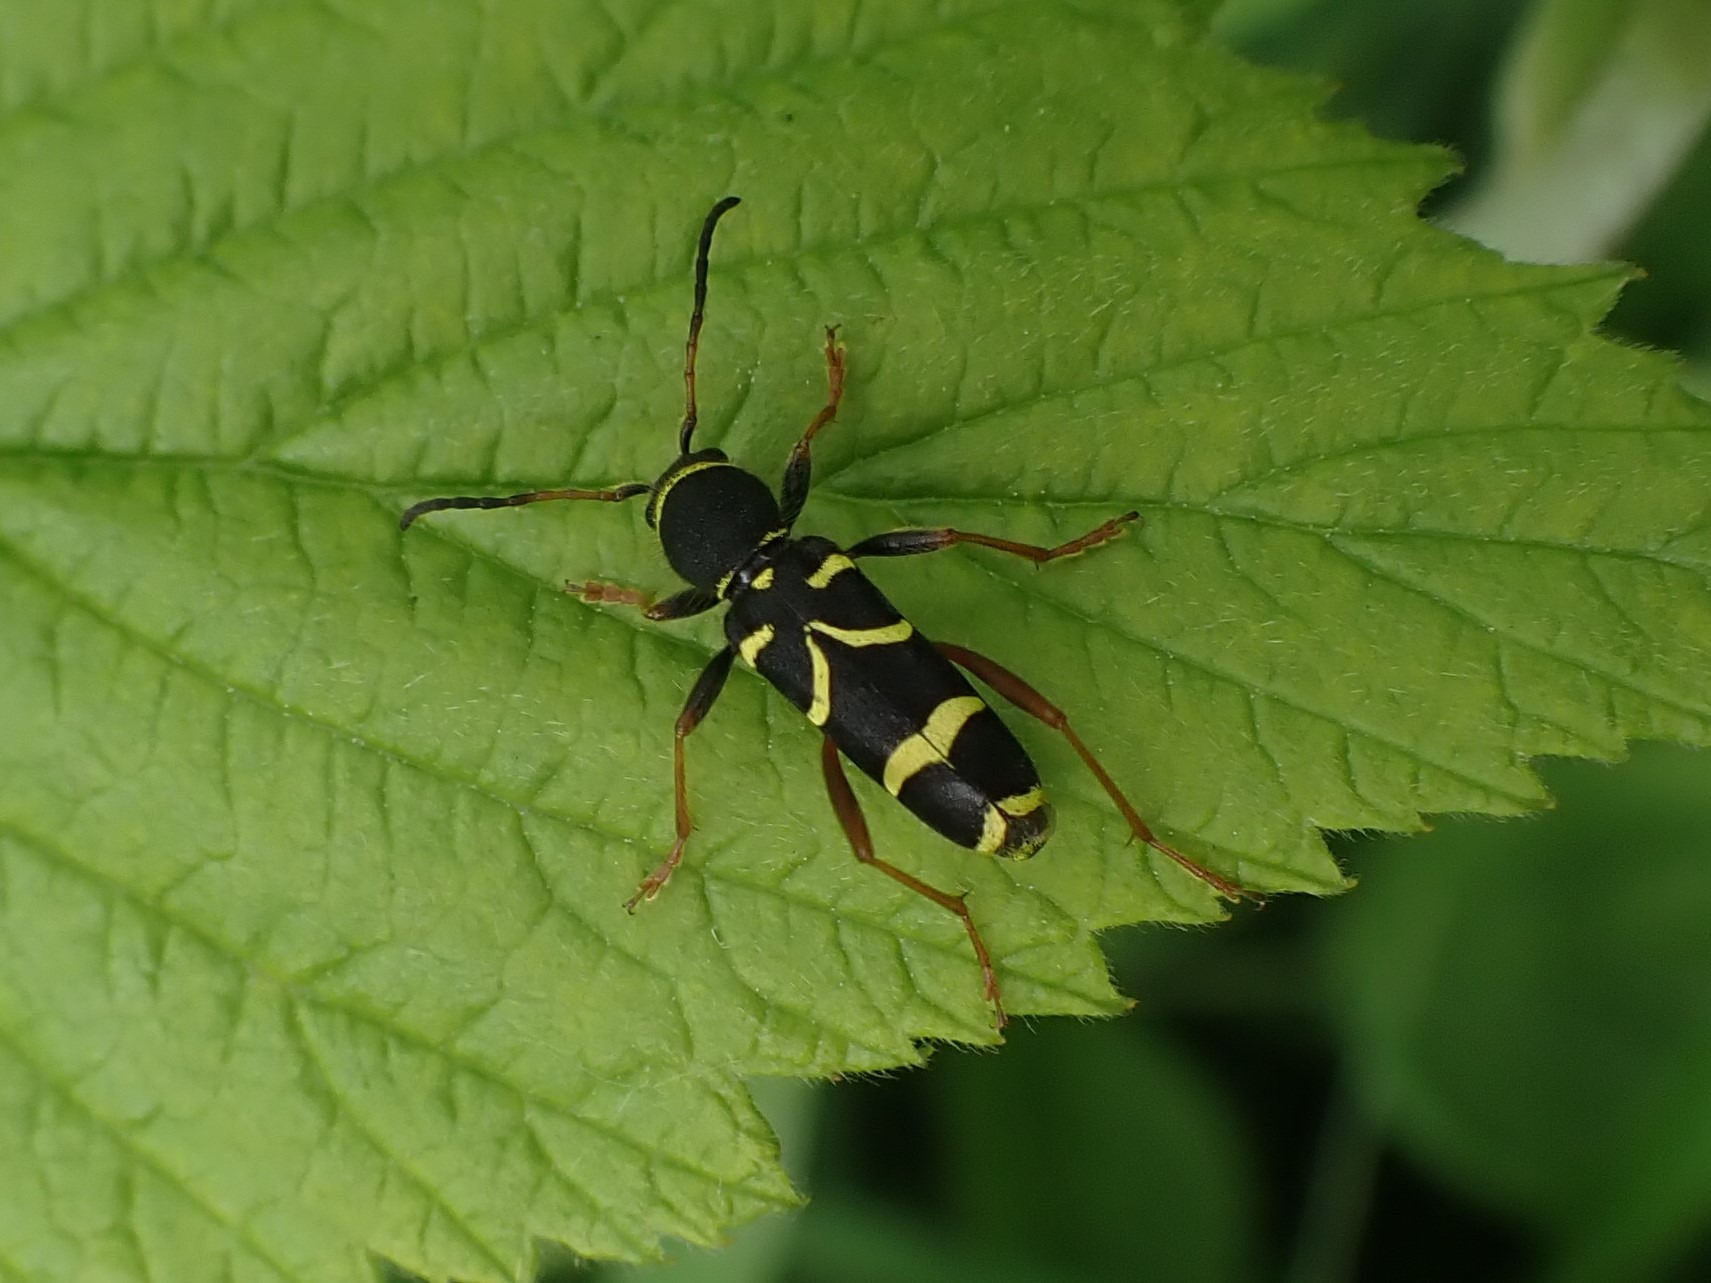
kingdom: Animalia
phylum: Arthropoda
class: Insecta
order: Coleoptera
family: Cerambycidae
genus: Clytus
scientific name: Clytus arietis
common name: Lille hvepsebuk
